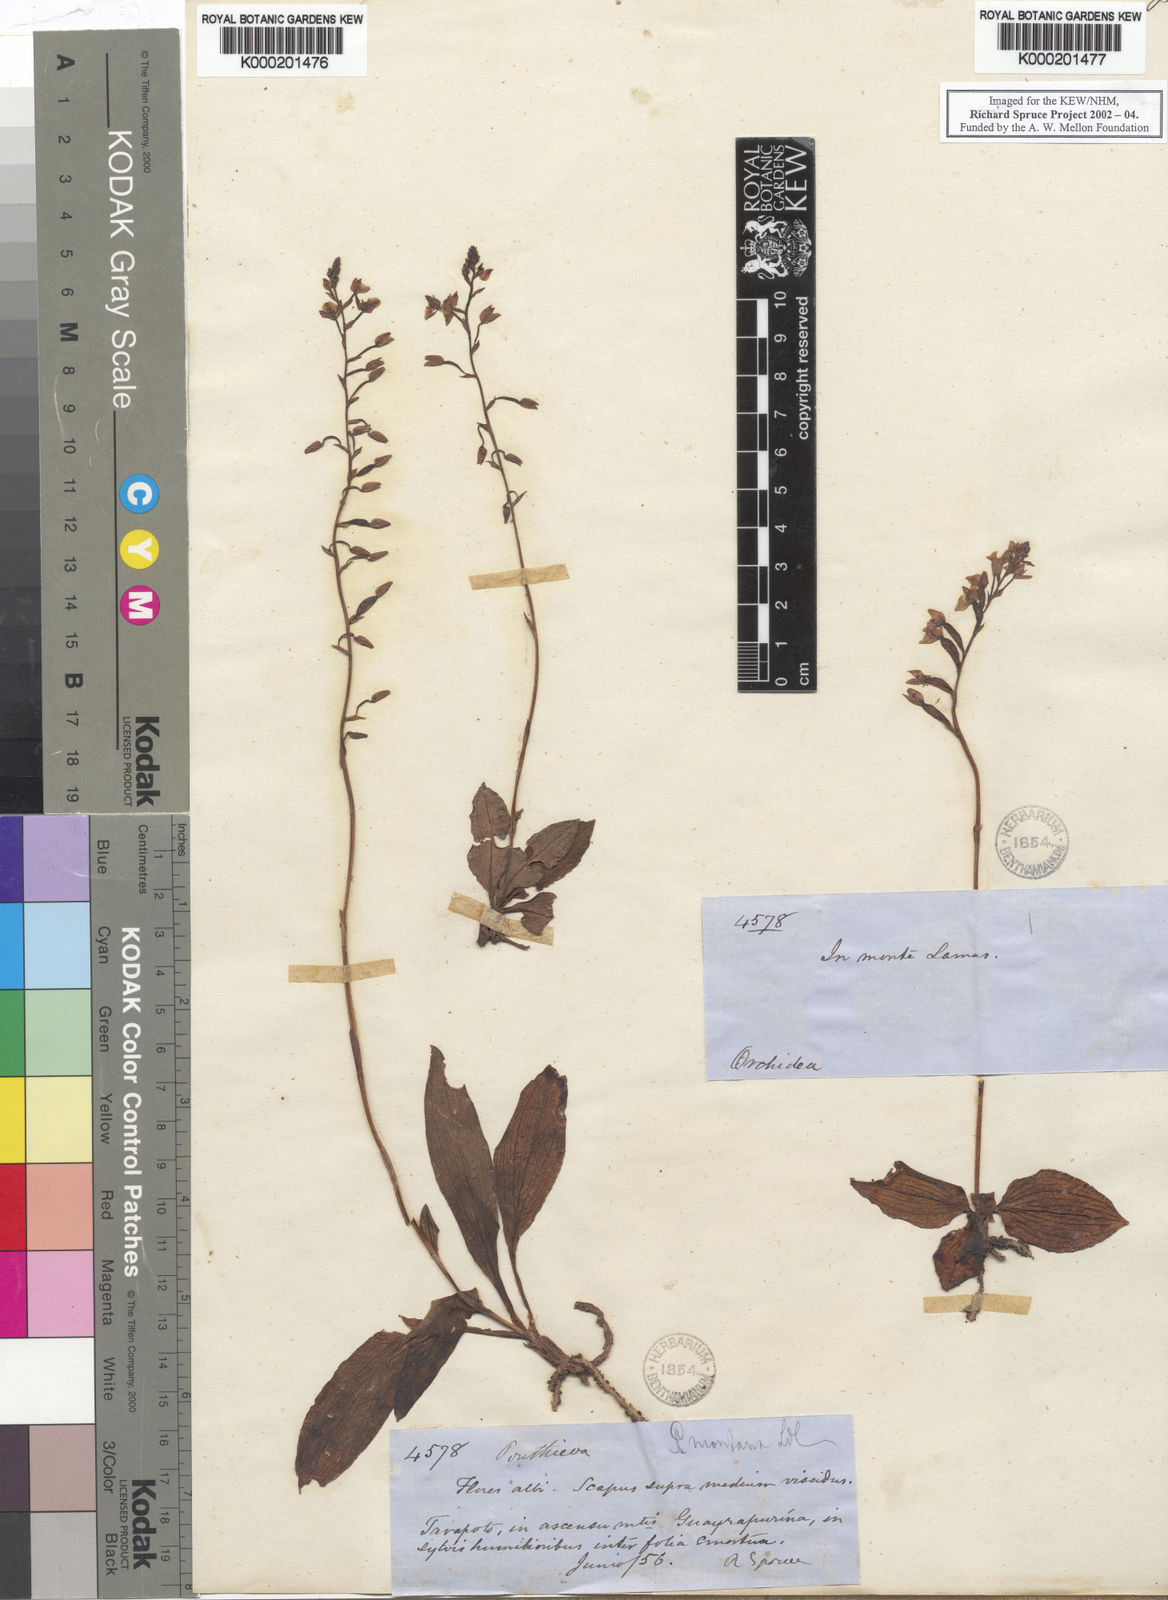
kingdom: Plantae
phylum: Tracheophyta
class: Liliopsida
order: Asparagales
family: Orchidaceae
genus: Ponthieva
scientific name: Ponthieva pubescens
